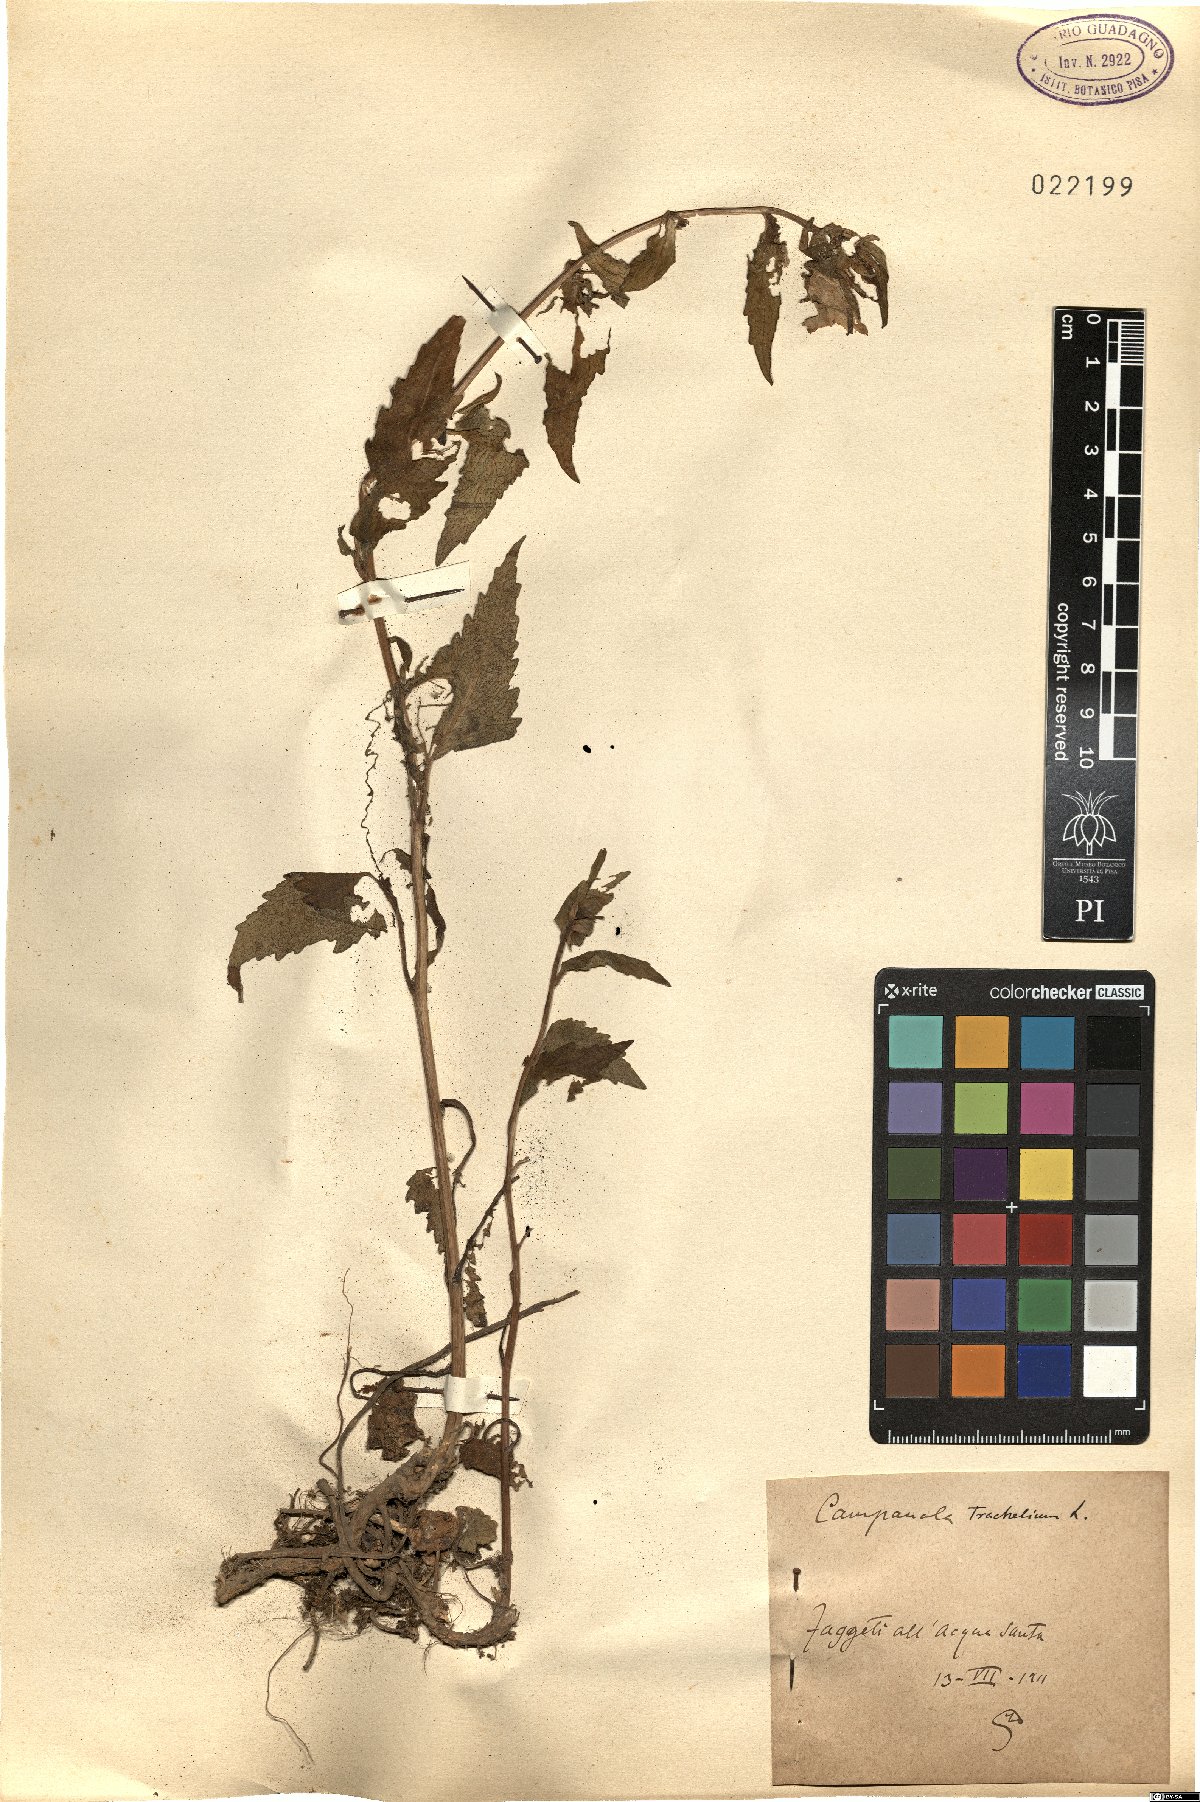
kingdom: Plantae
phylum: Tracheophyta
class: Magnoliopsida
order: Asterales
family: Campanulaceae
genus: Campanula
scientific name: Campanula trachelium
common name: Nettle-leaved bellflower
